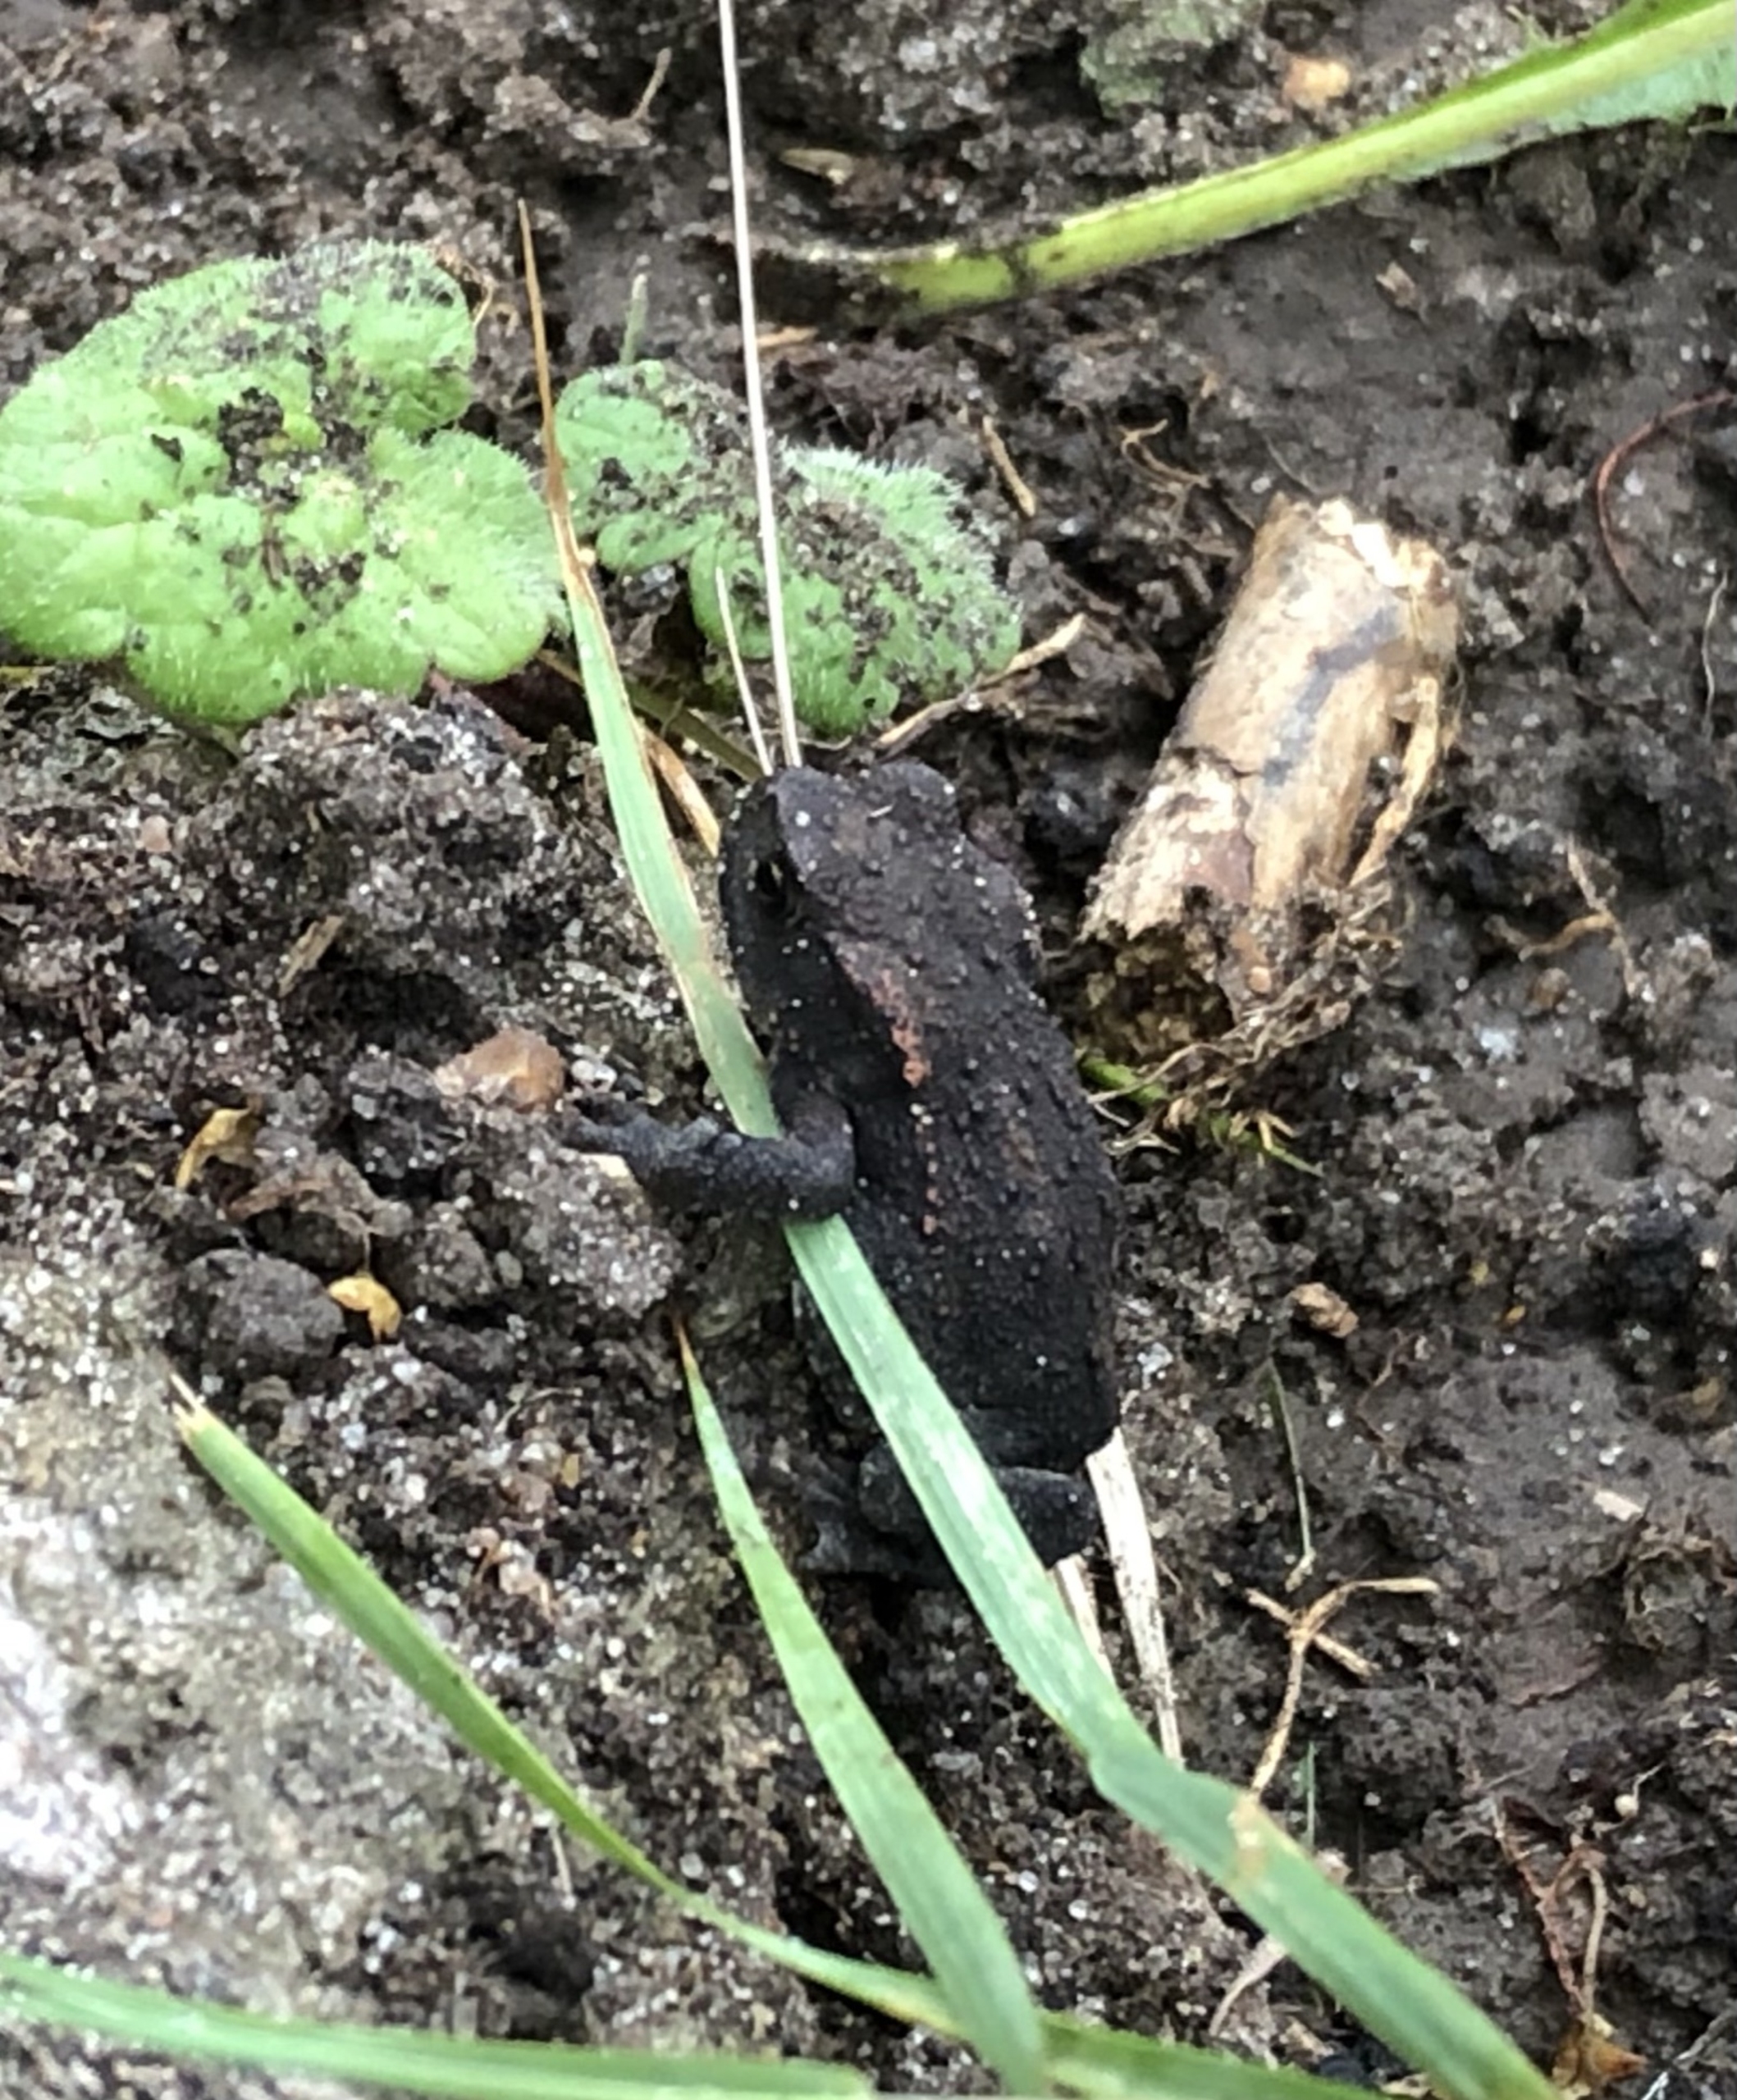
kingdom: Animalia
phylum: Chordata
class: Amphibia
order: Anura
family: Bufonidae
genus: Bufo
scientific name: Bufo bufo
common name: Skrubtudse
